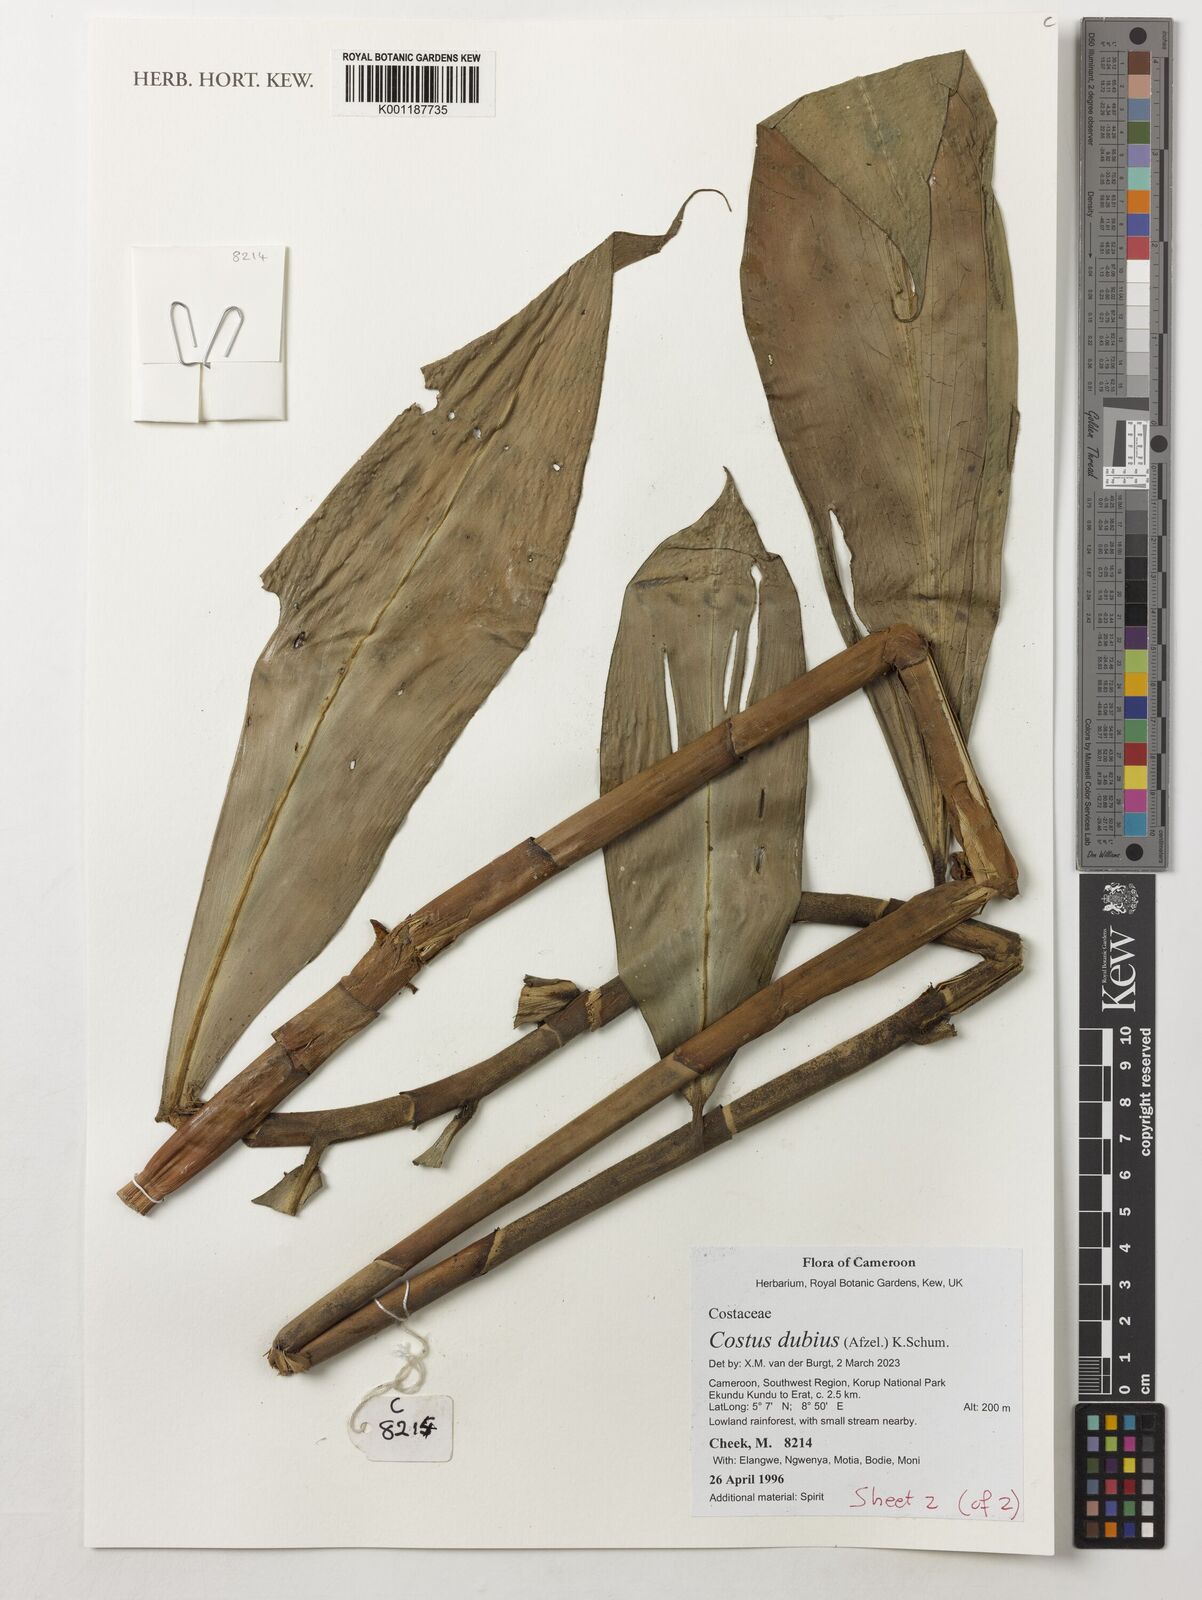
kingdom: Plantae
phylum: Tracheophyta
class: Liliopsida
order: Zingiberales
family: Costaceae
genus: Costus
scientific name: Costus dubius
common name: Costus
